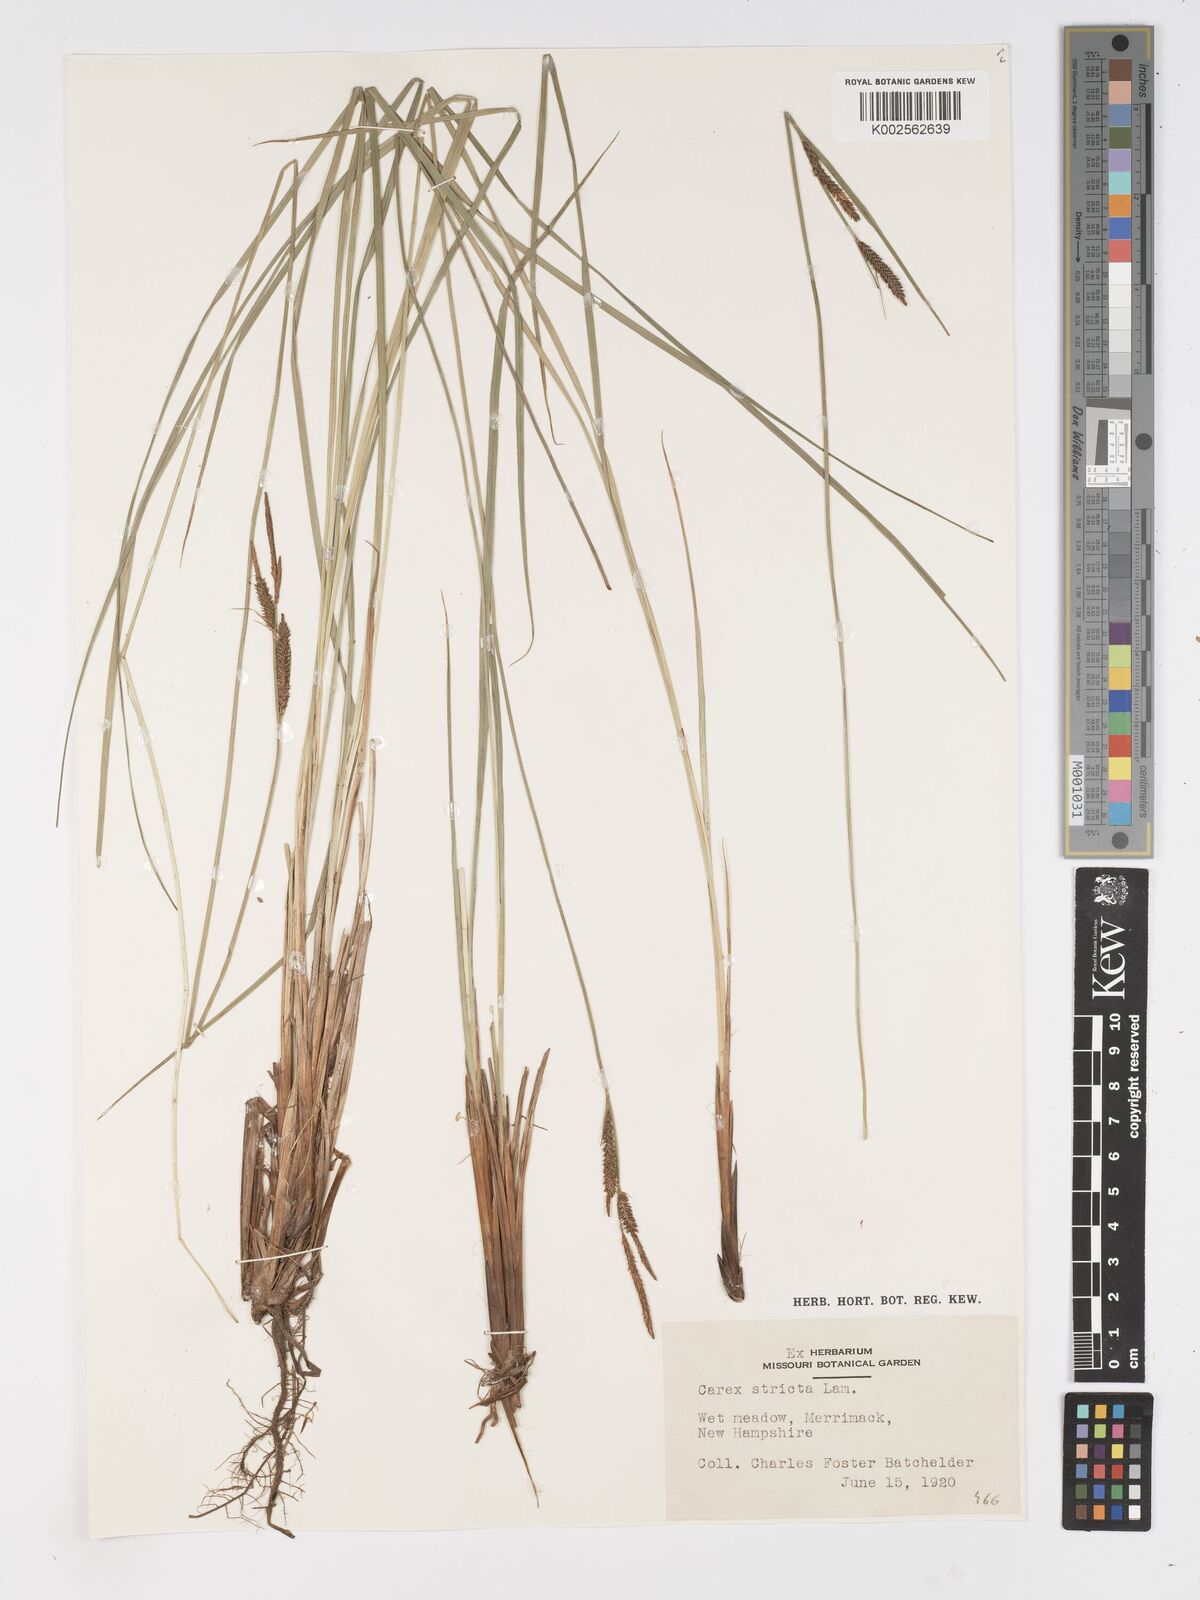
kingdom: Plantae
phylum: Tracheophyta
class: Liliopsida
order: Poales
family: Cyperaceae
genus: Carex
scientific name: Carex stricta
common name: Hummock sedge
